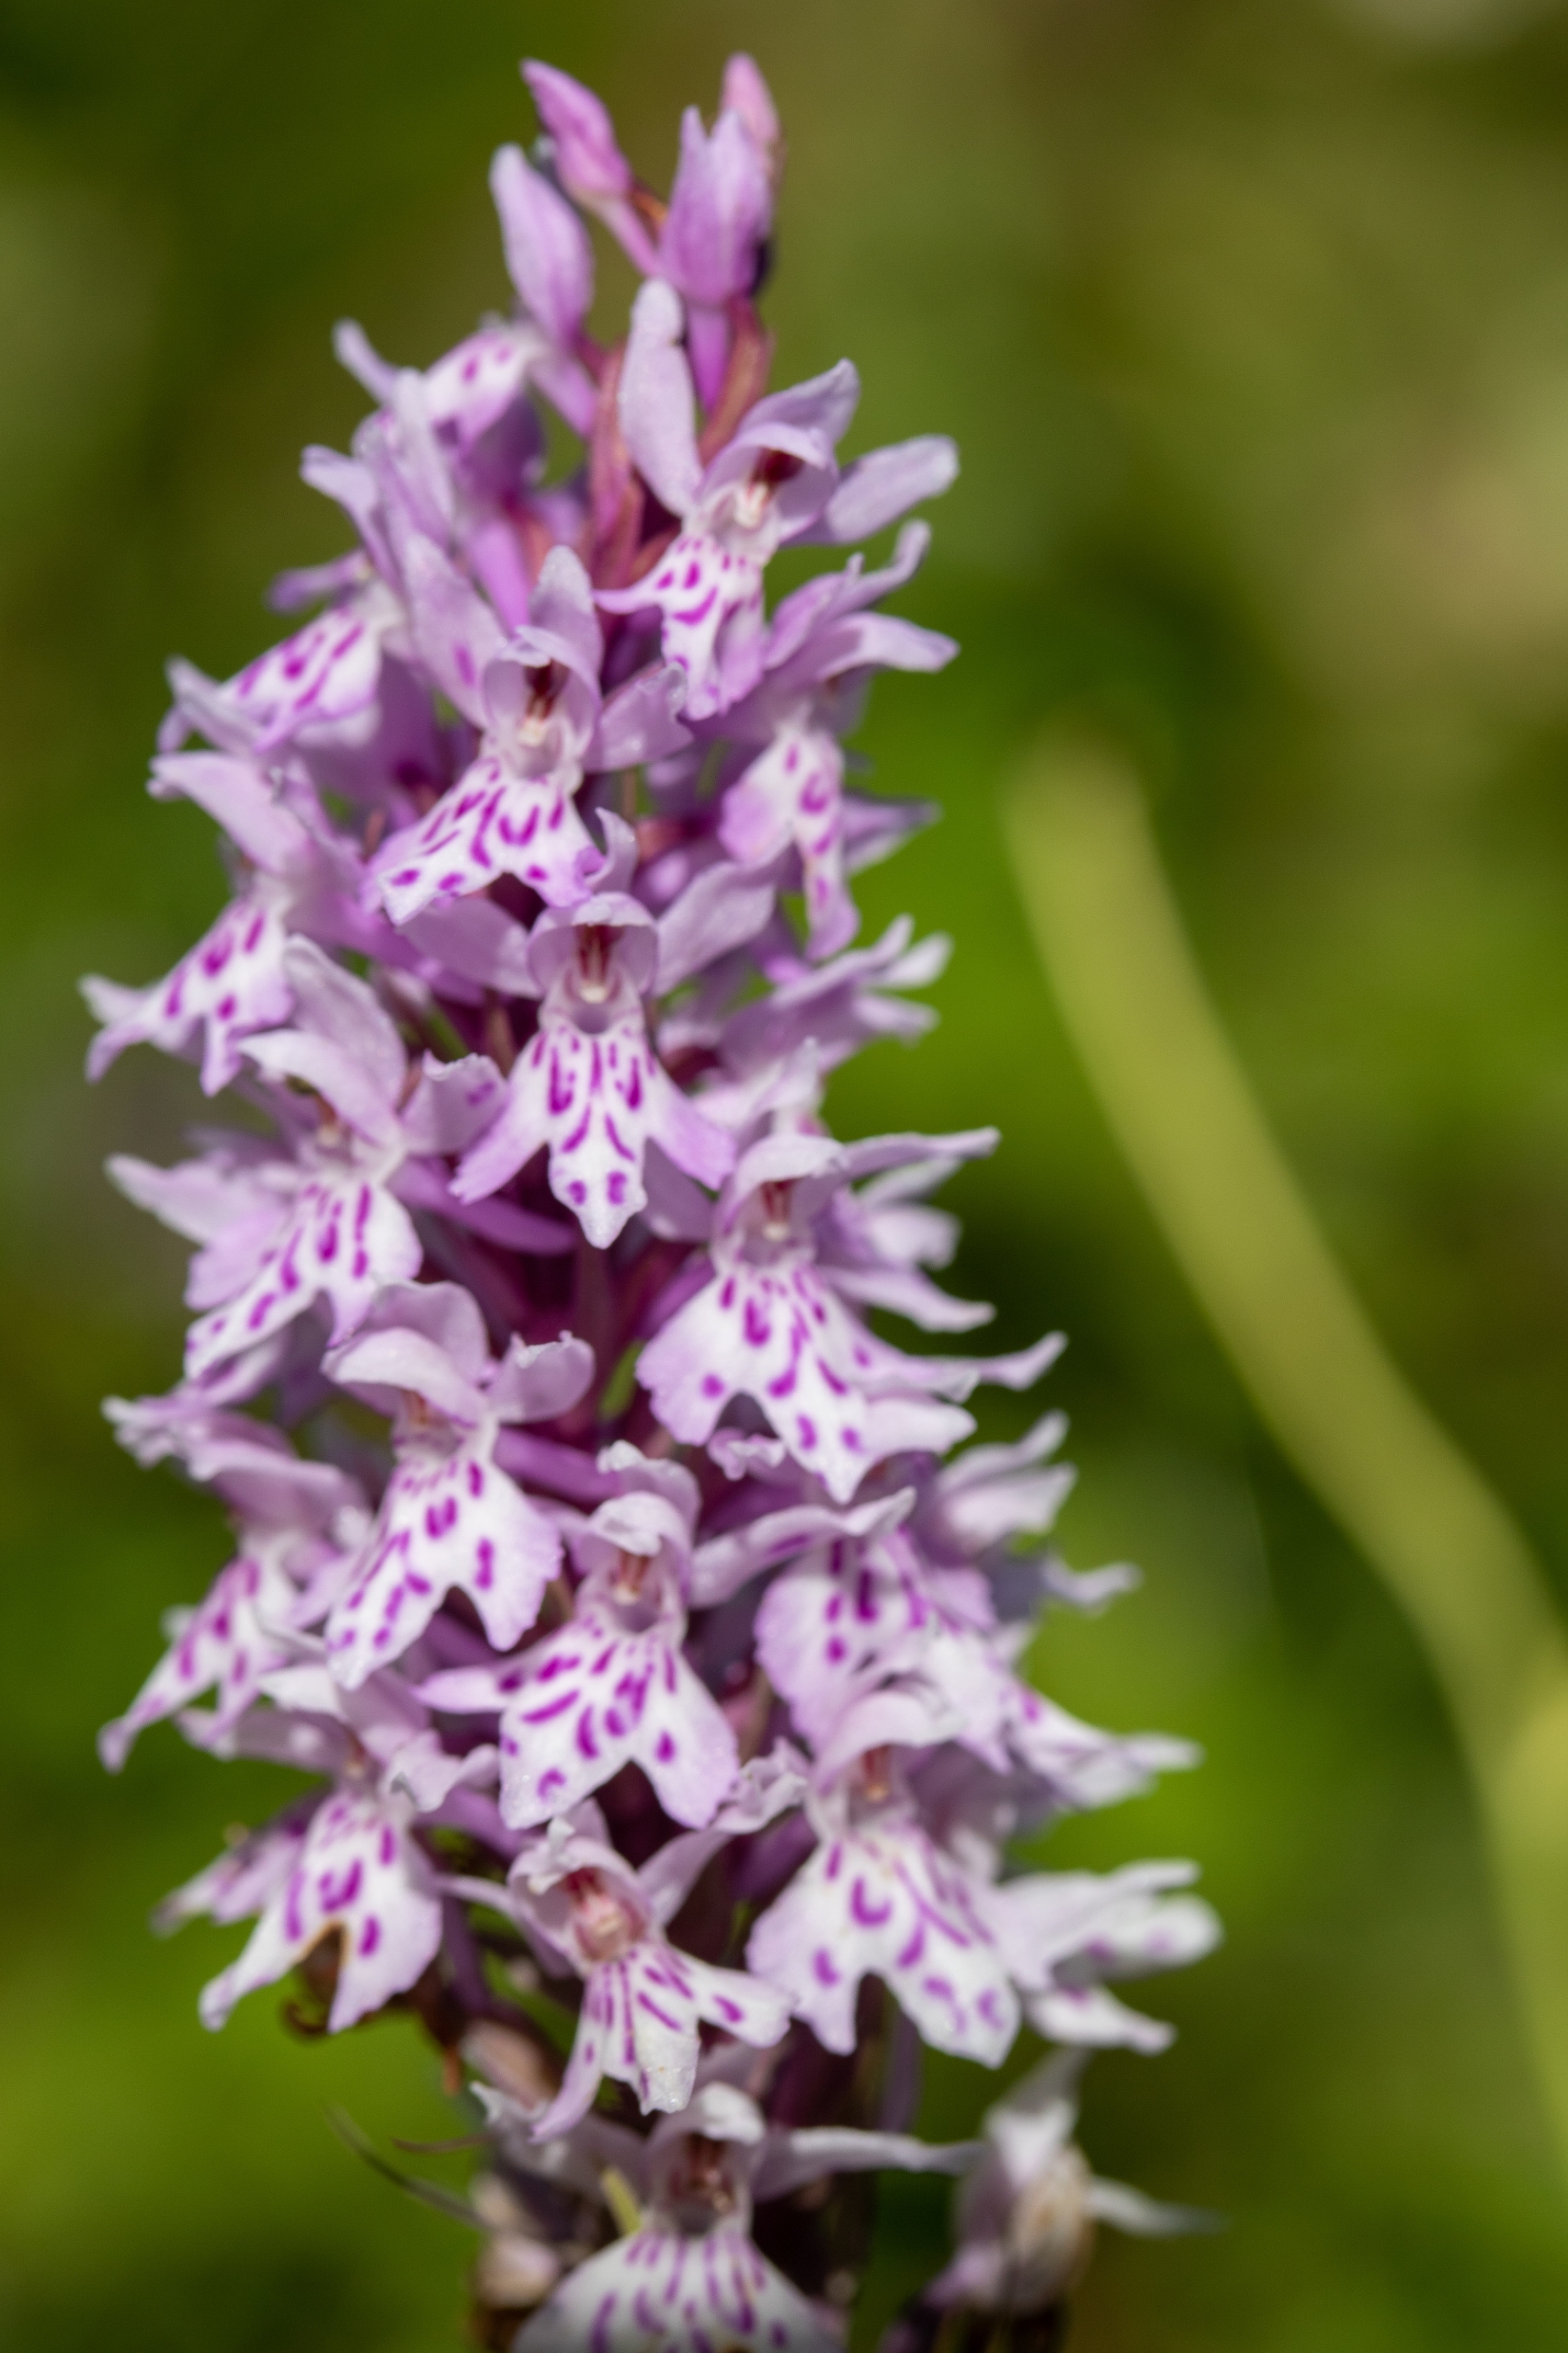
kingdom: Plantae
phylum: Tracheophyta
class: Liliopsida
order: Asparagales
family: Orchidaceae
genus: Dactylorhiza
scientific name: Dactylorhiza maculata
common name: Skov-gøgeurt
